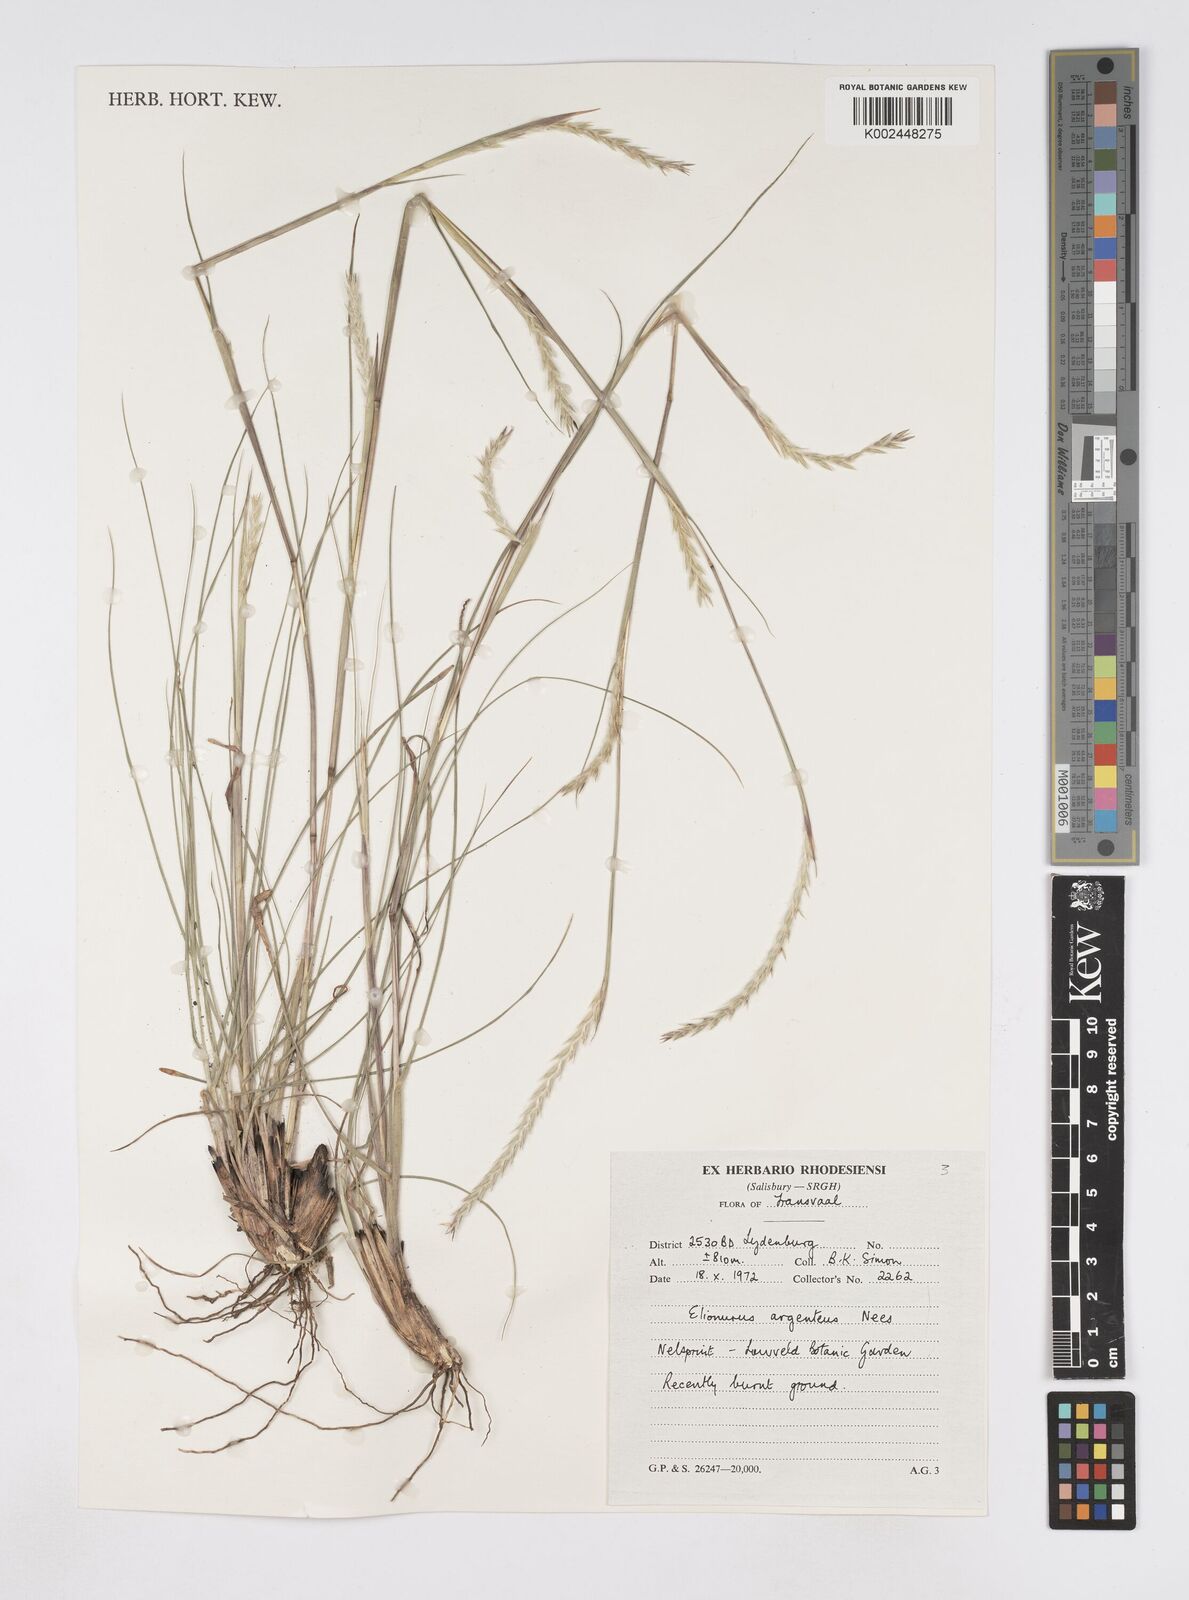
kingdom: Plantae
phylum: Tracheophyta
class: Liliopsida
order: Poales
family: Poaceae
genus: Elionurus
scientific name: Elionurus muticus
